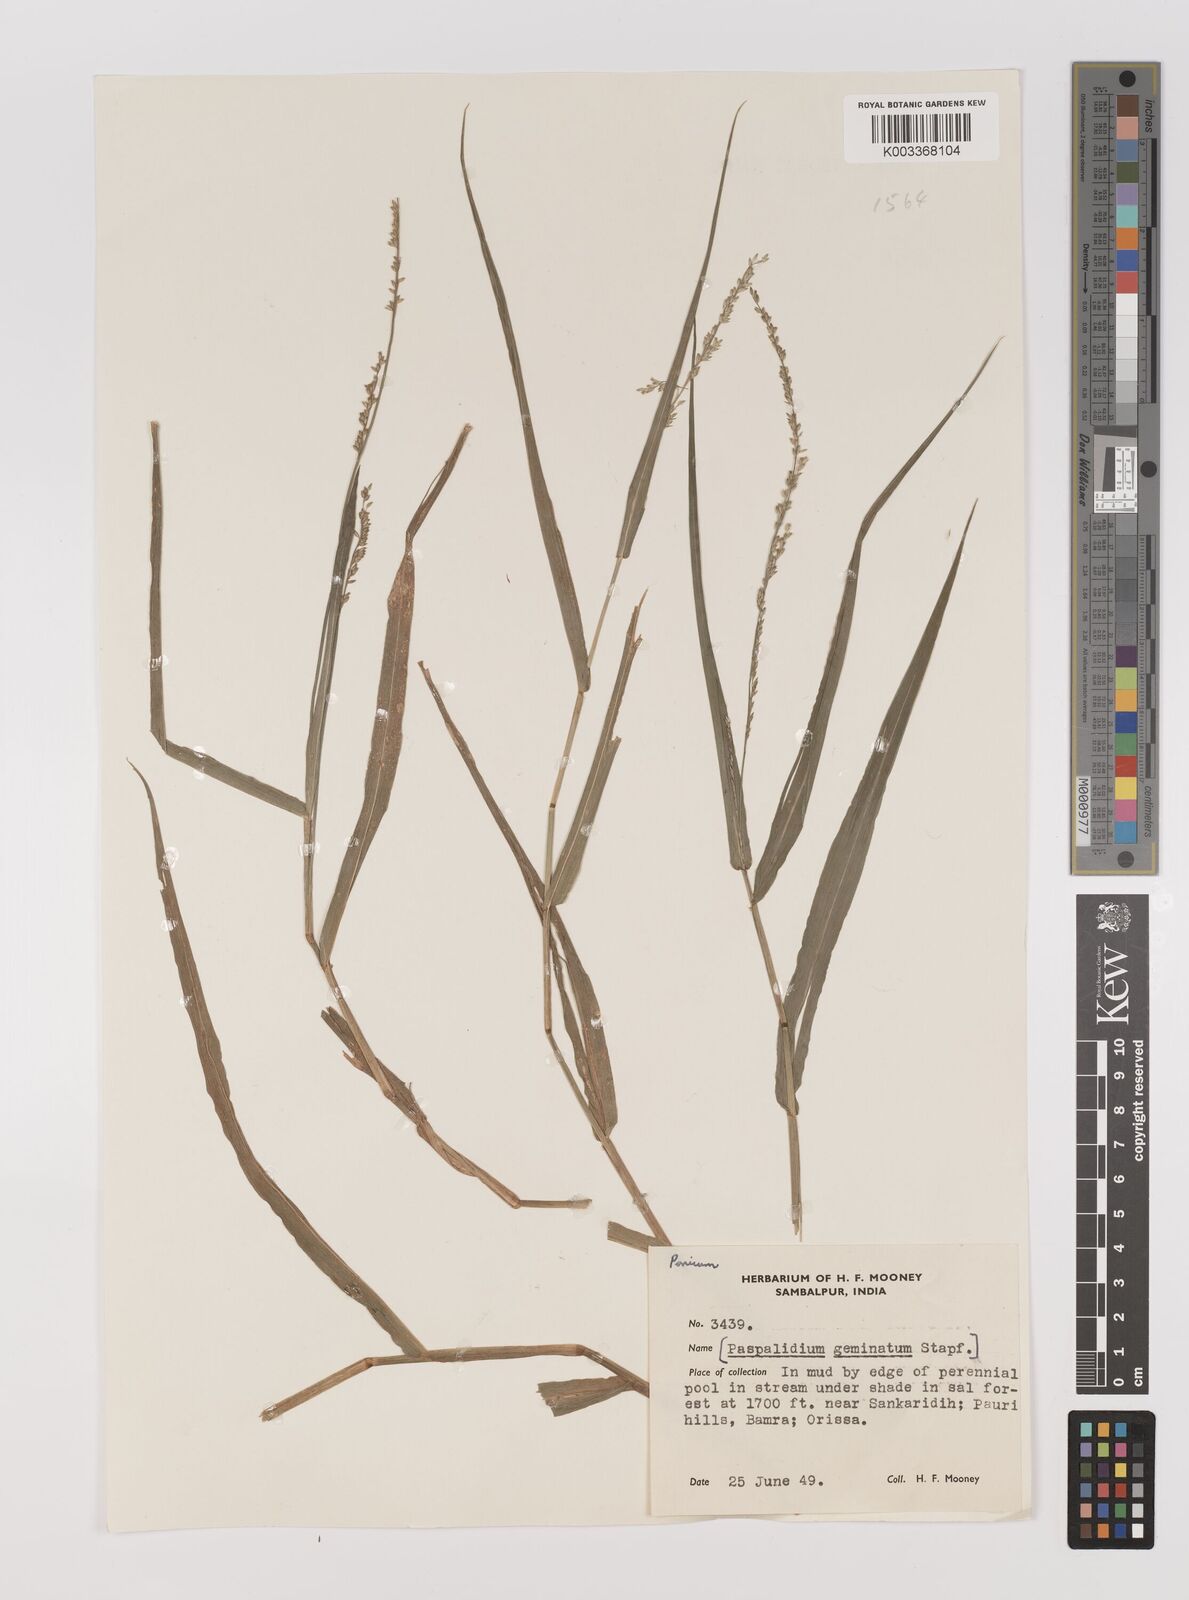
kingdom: Plantae
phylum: Tracheophyta
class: Liliopsida
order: Poales
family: Poaceae
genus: Hymenachne
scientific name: Hymenachne aurita
